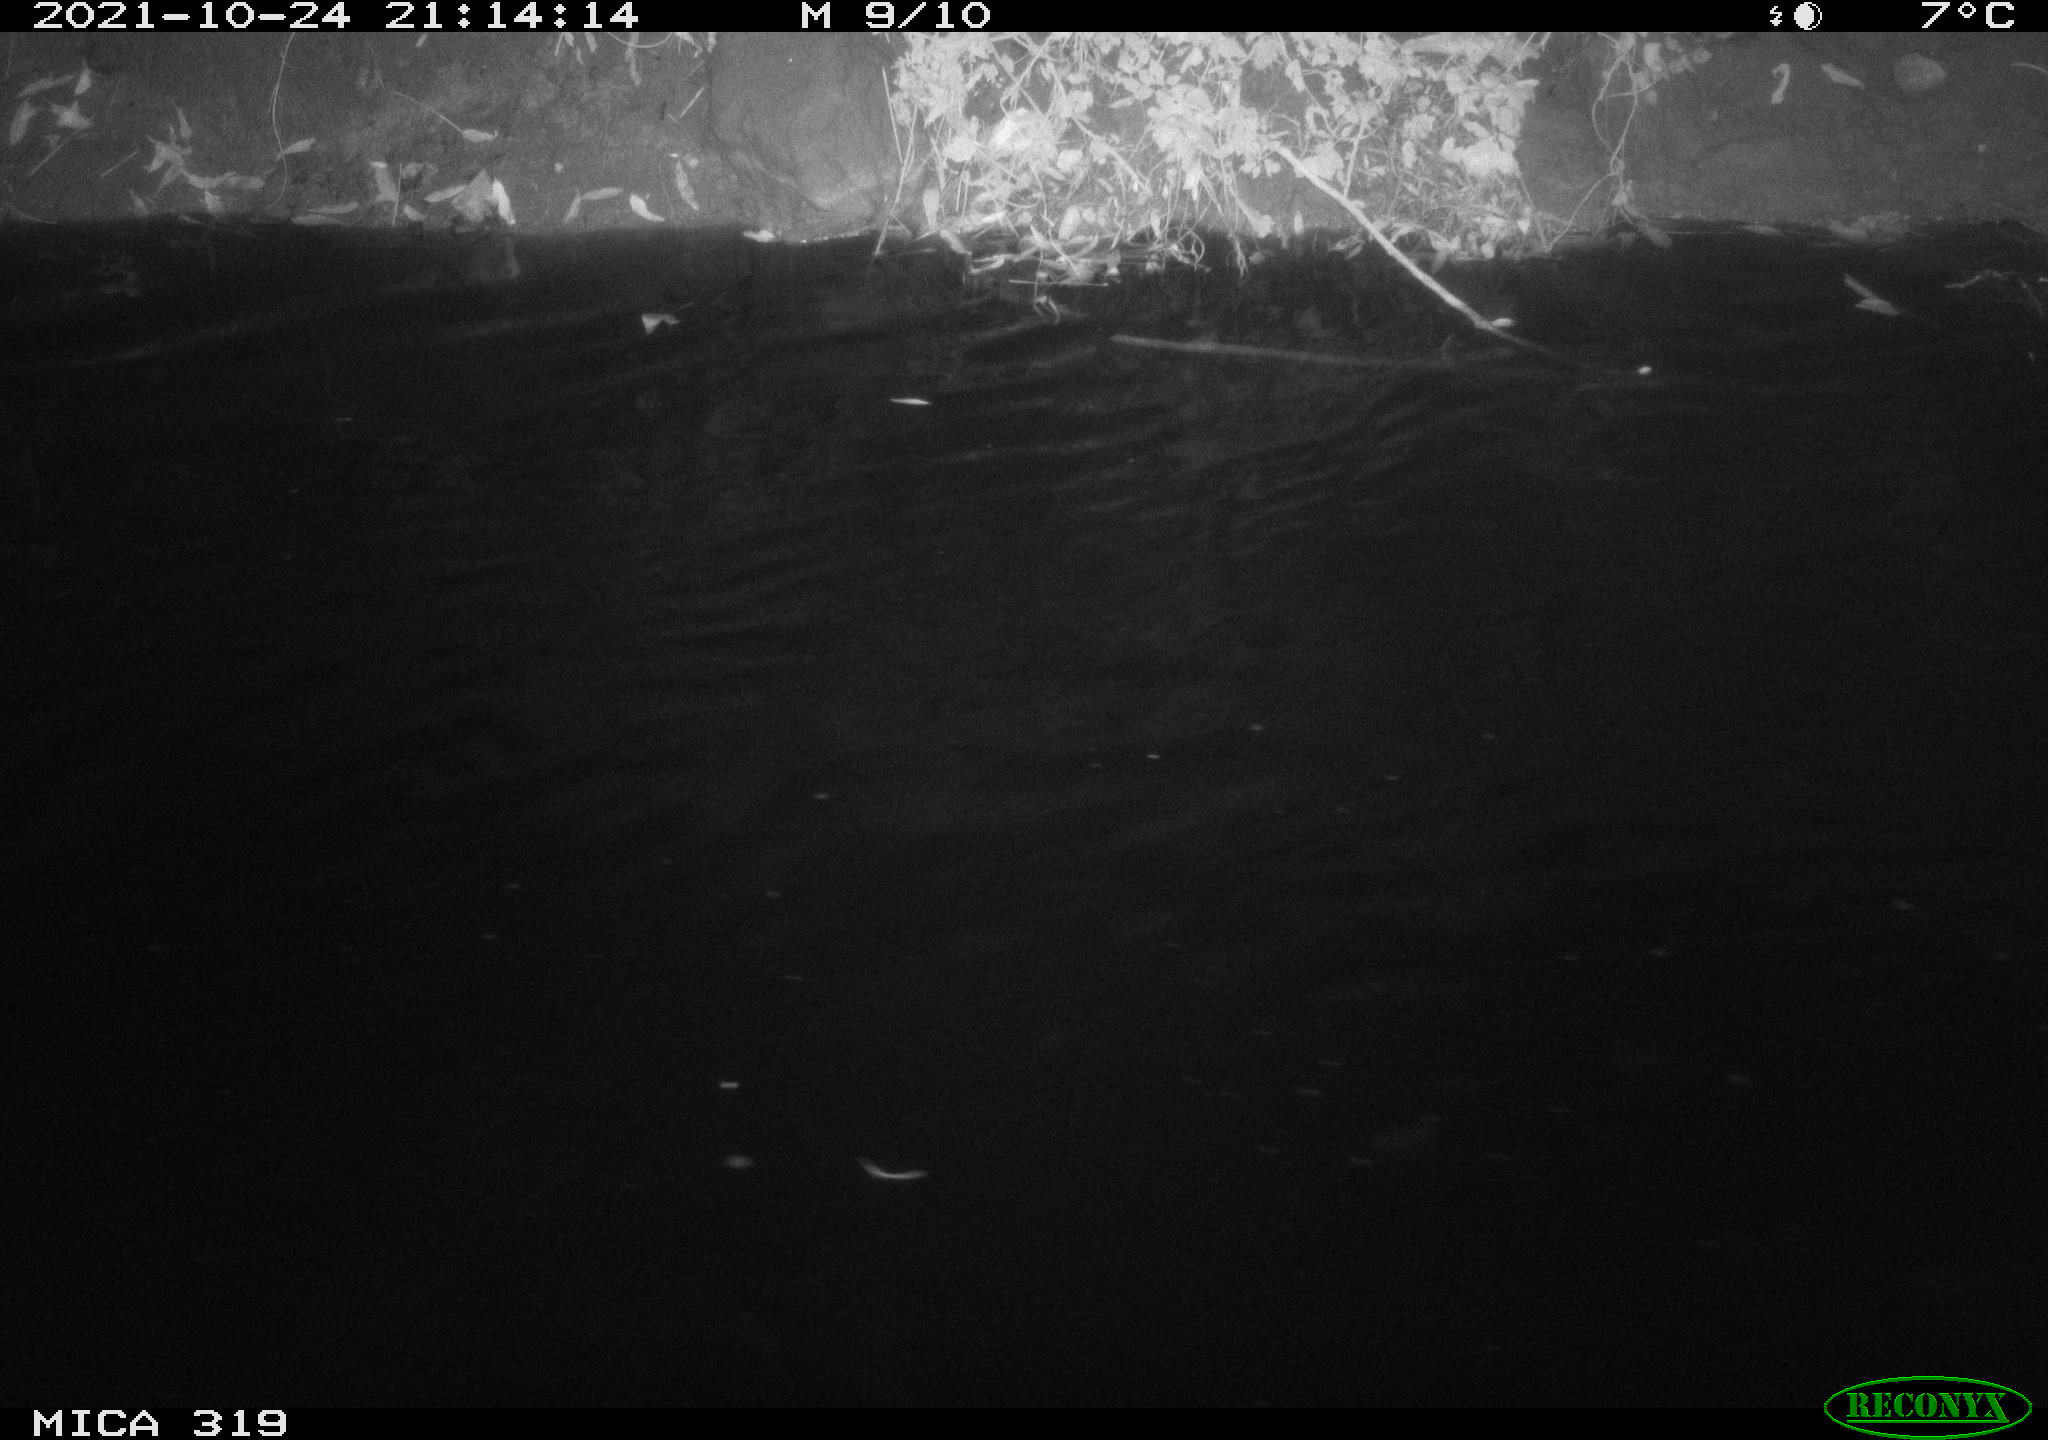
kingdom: Animalia
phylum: Chordata
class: Aves
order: Anseriformes
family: Anatidae
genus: Anas
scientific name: Anas platyrhynchos
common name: Mallard
